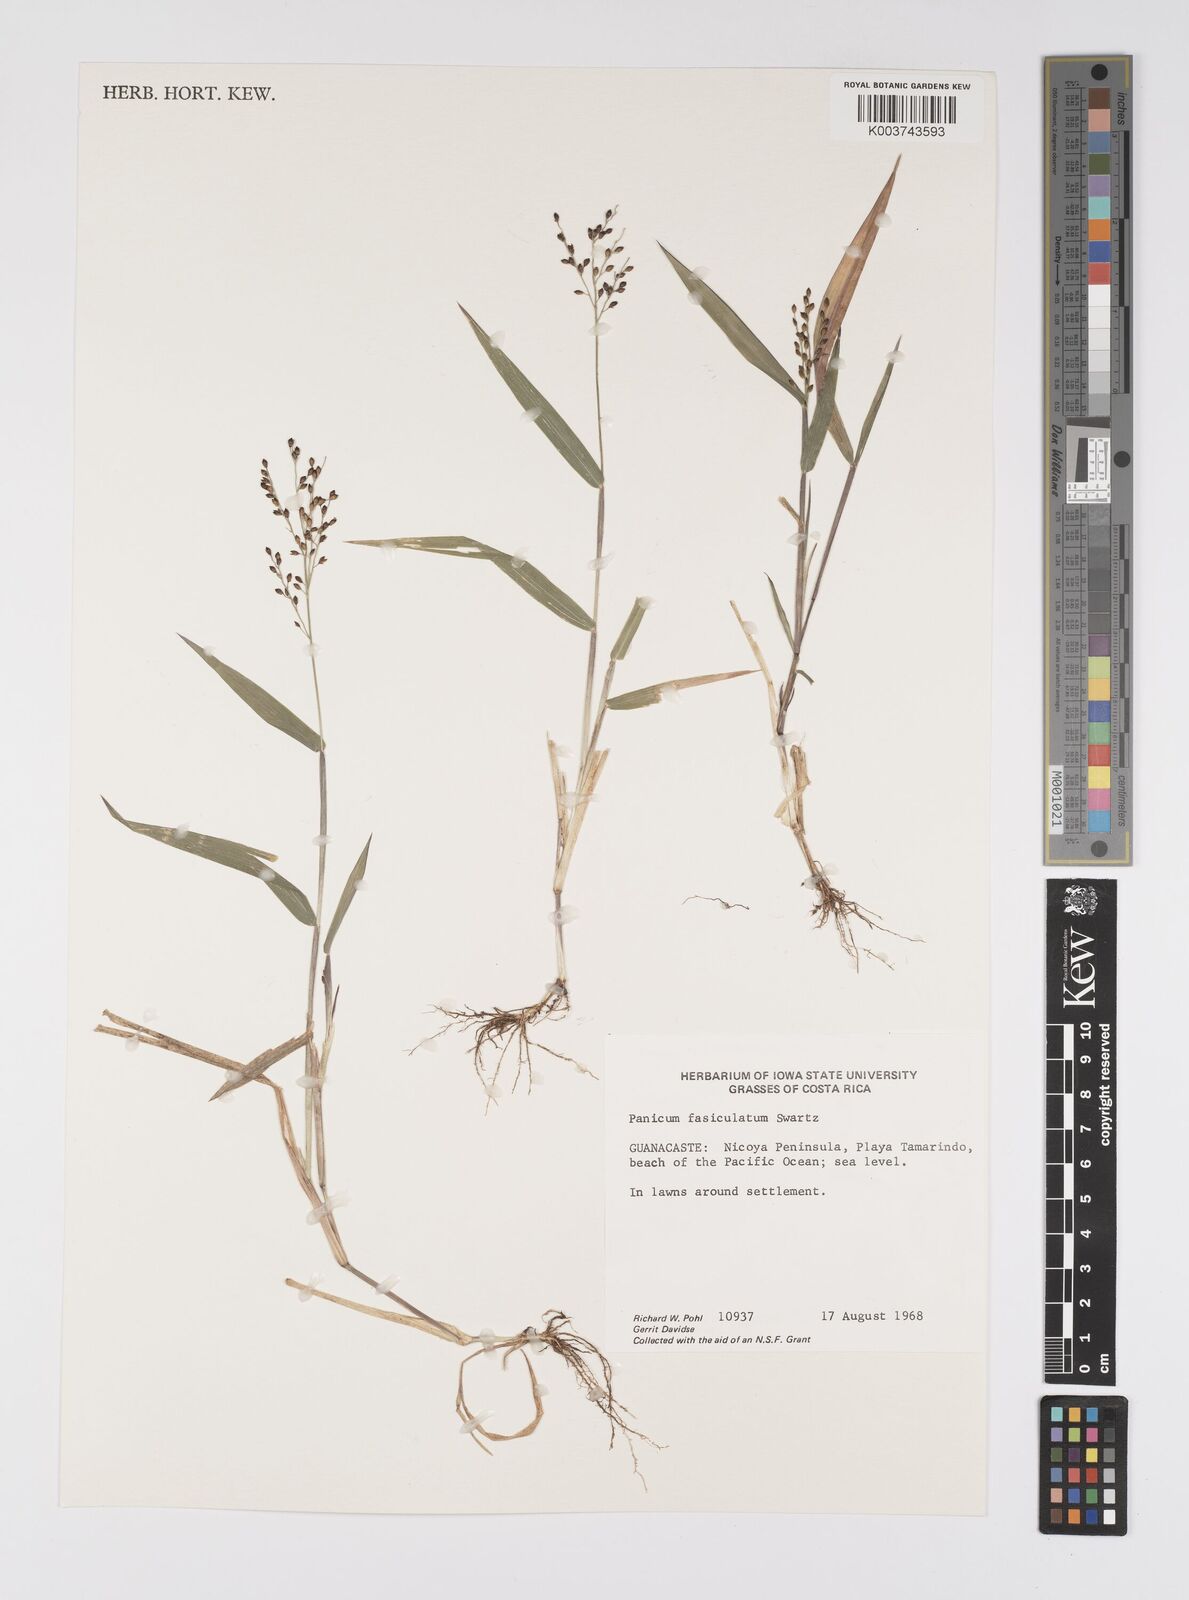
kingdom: Plantae
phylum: Tracheophyta
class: Liliopsida
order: Poales
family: Poaceae
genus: Urochloa
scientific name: Urochloa fusca
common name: Browntop signal grass
